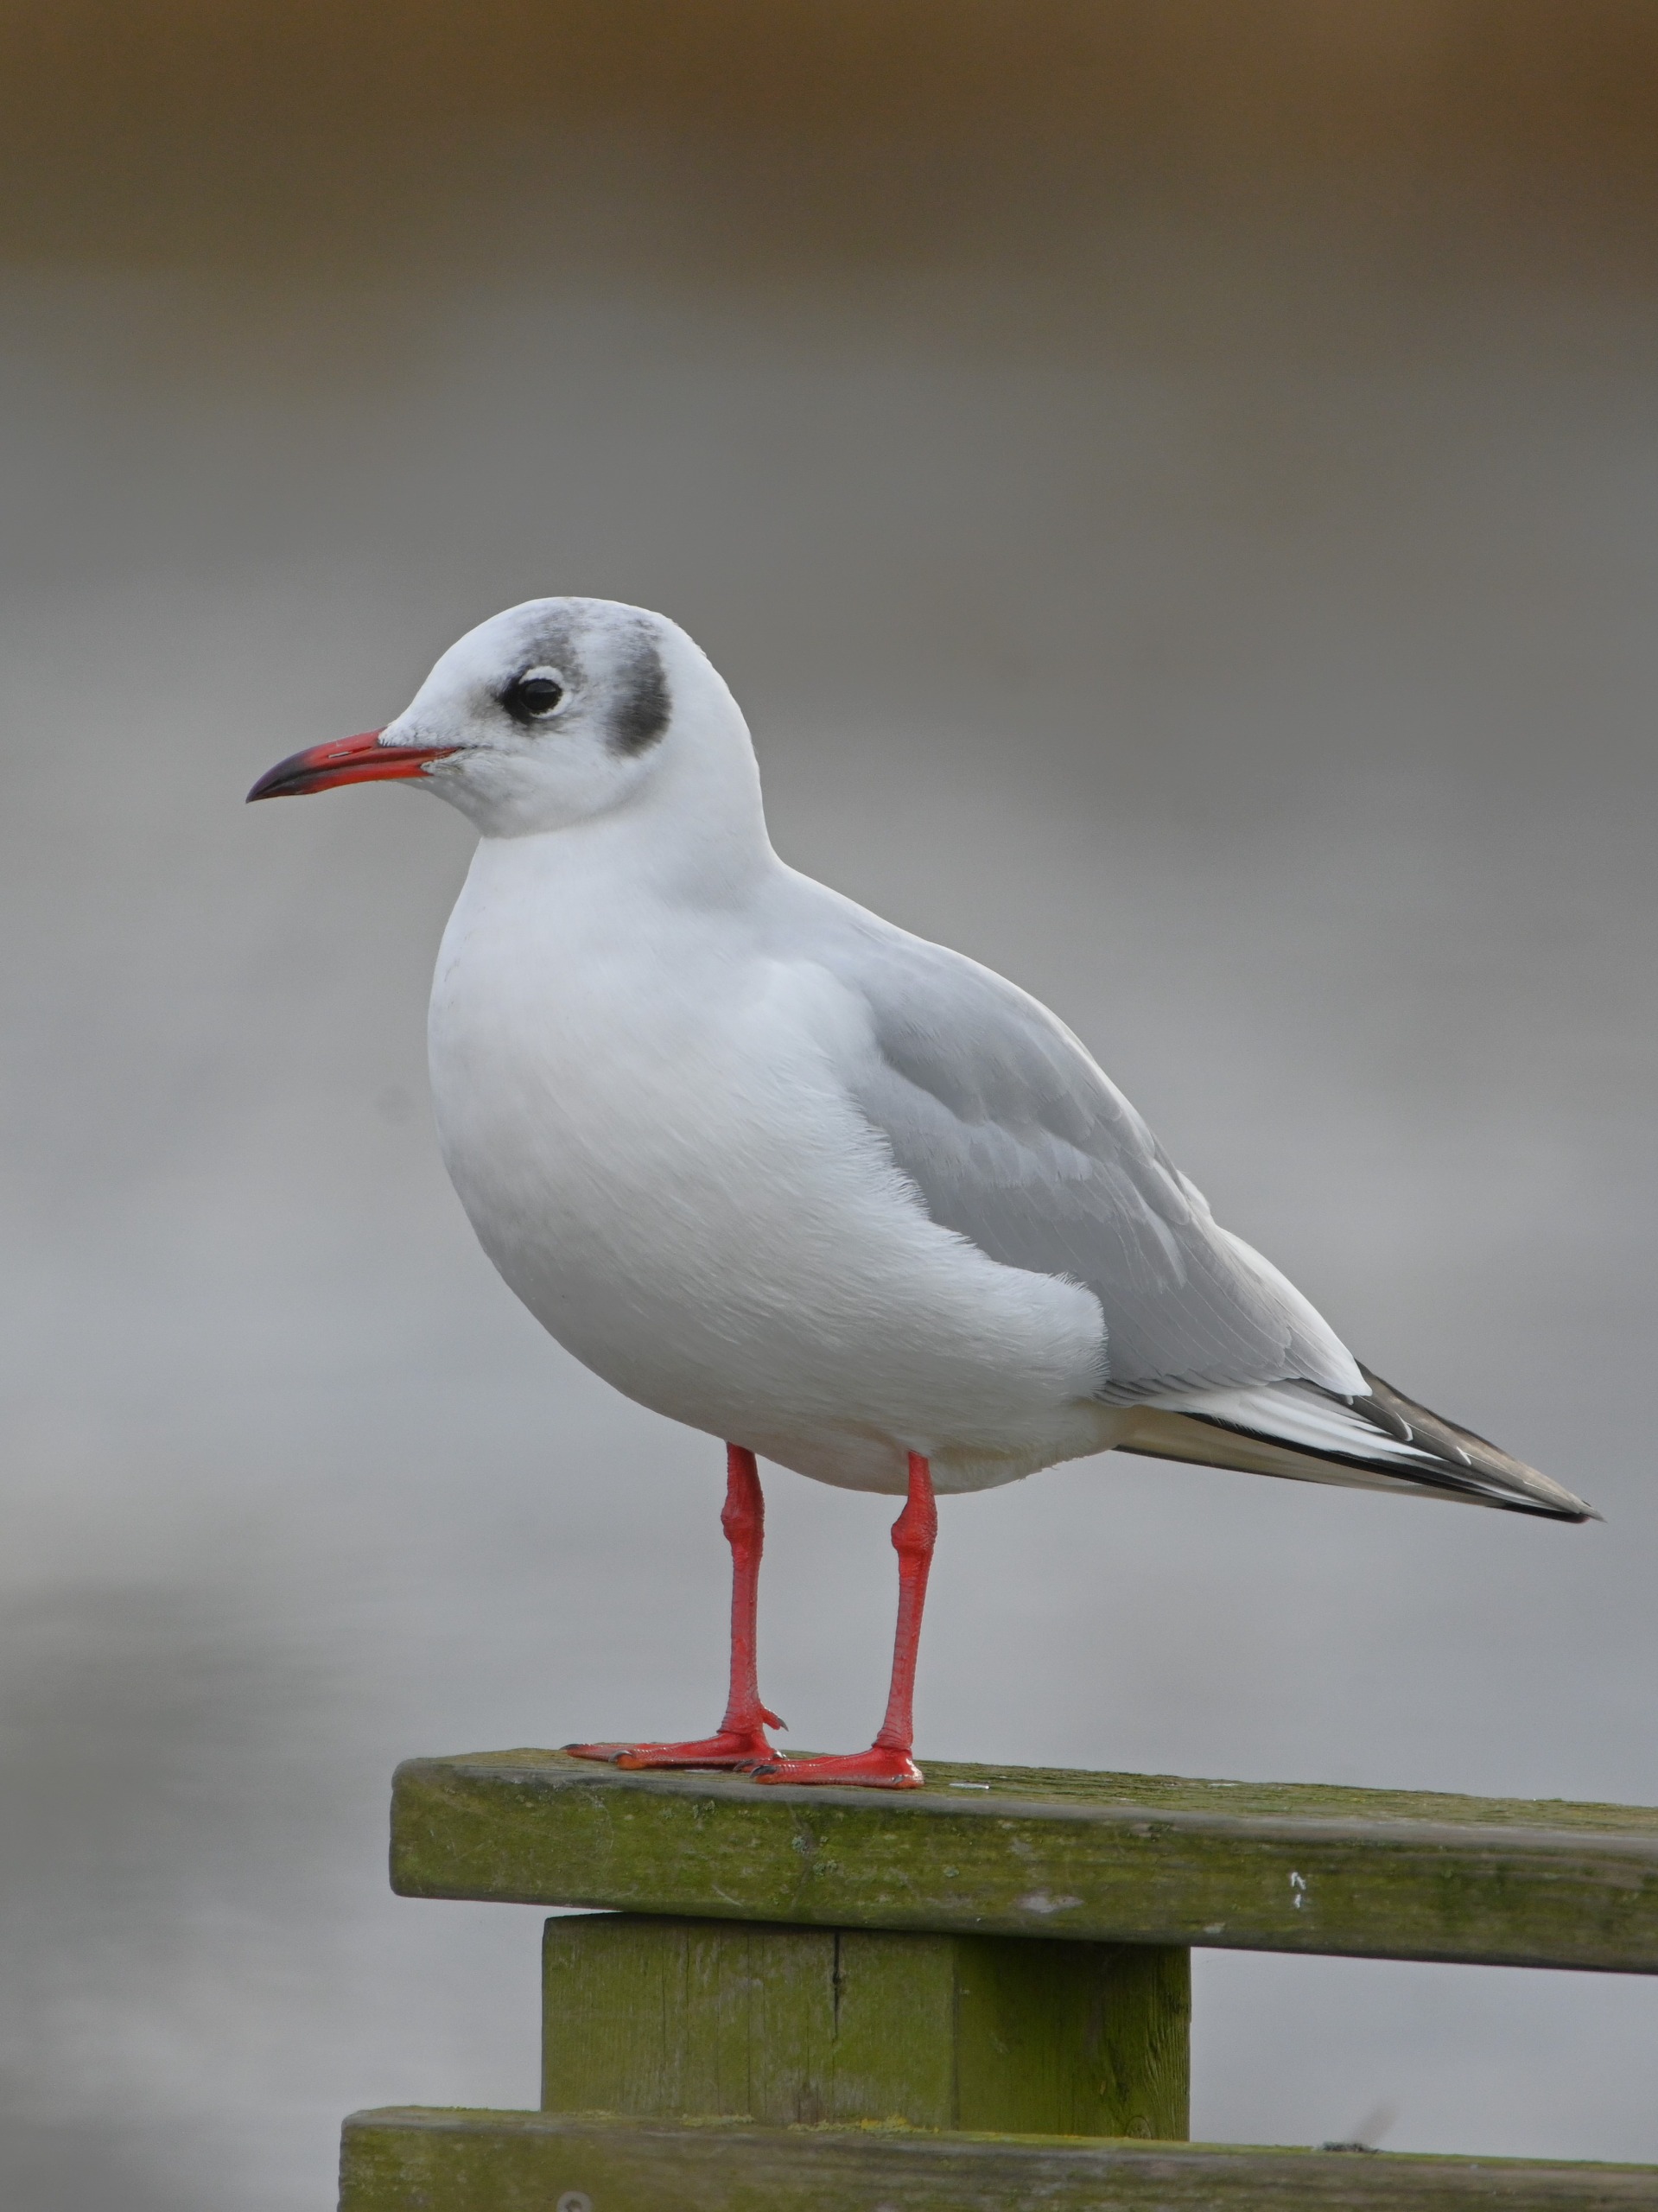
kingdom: Animalia
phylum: Chordata
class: Aves
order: Charadriiformes
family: Laridae
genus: Chroicocephalus
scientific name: Chroicocephalus ridibundus
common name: Hættemåge
